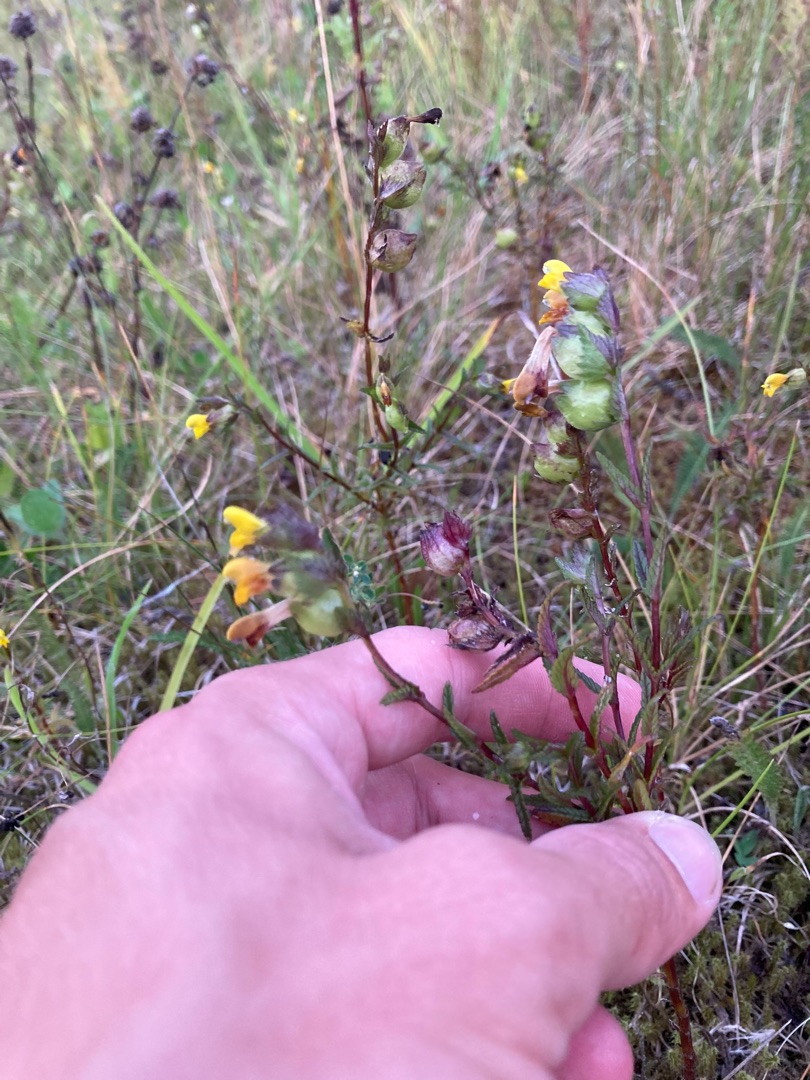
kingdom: Plantae
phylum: Tracheophyta
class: Magnoliopsida
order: Lamiales
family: Orobanchaceae
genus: Rhinanthus
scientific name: Rhinanthus minor
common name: Liden skjaller
